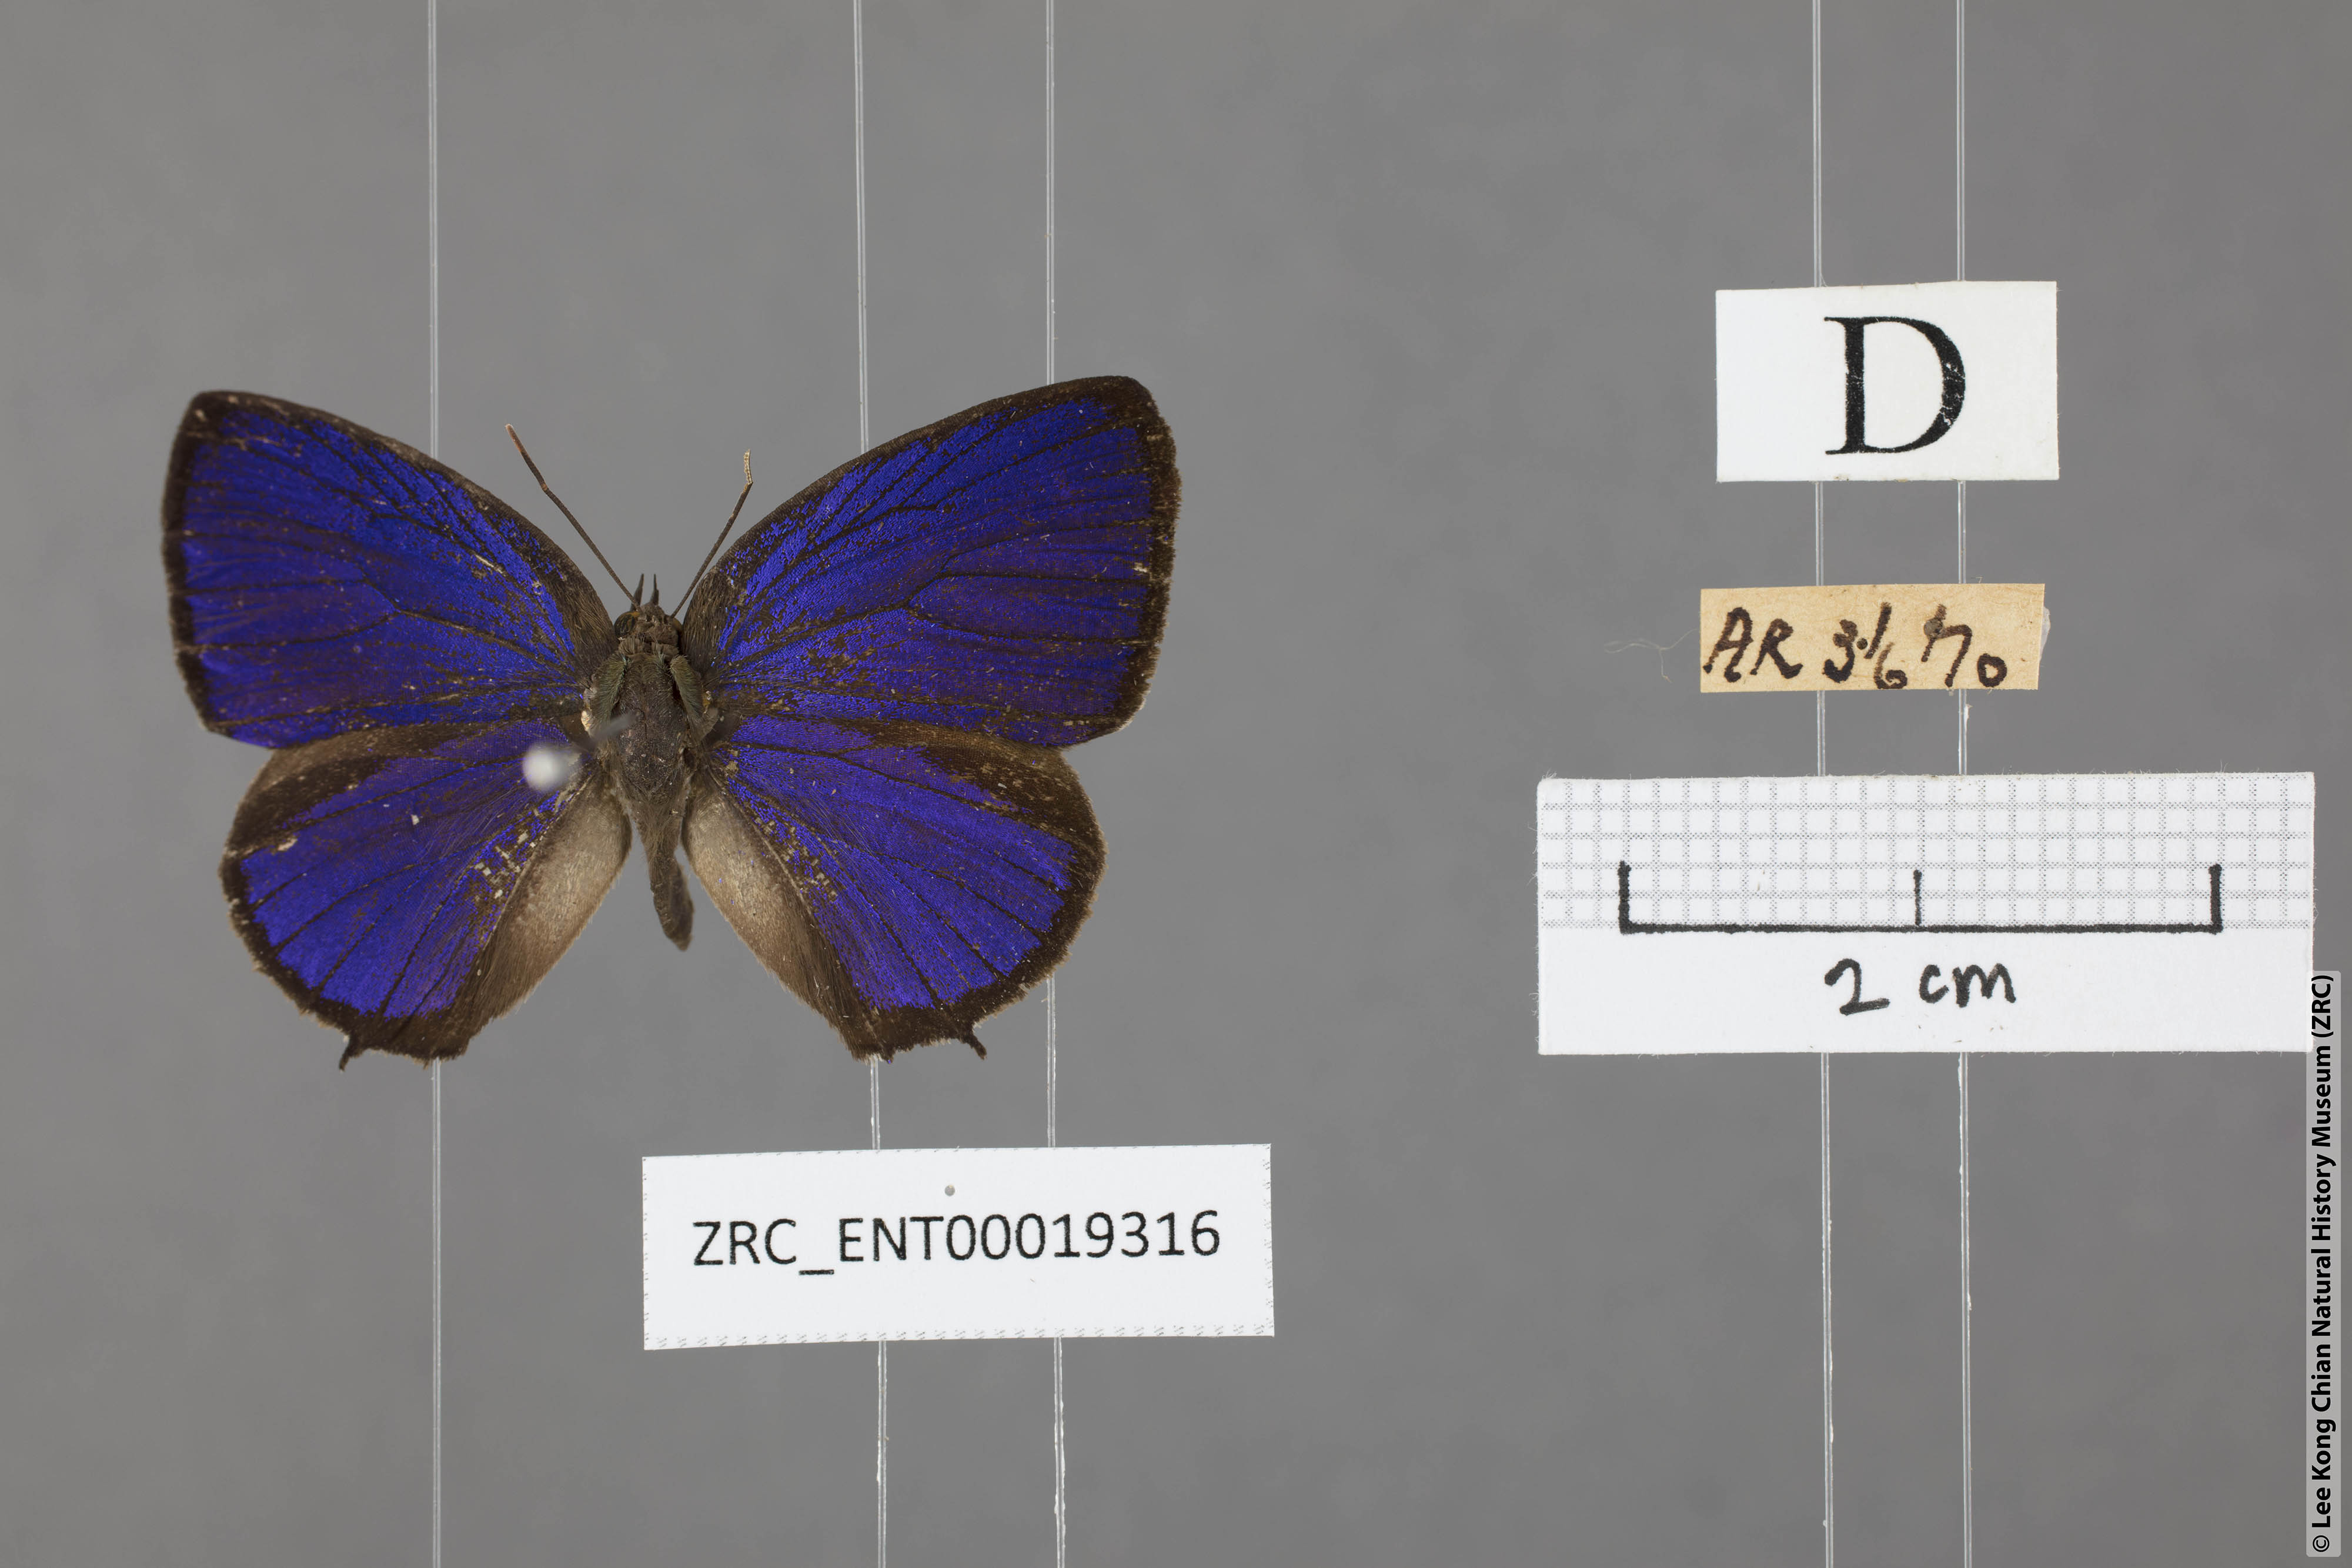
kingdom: Animalia
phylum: Arthropoda
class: Insecta
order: Lepidoptera
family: Lycaenidae
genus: Arhopala
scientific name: Arhopala buddha
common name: Buddha oakblue
